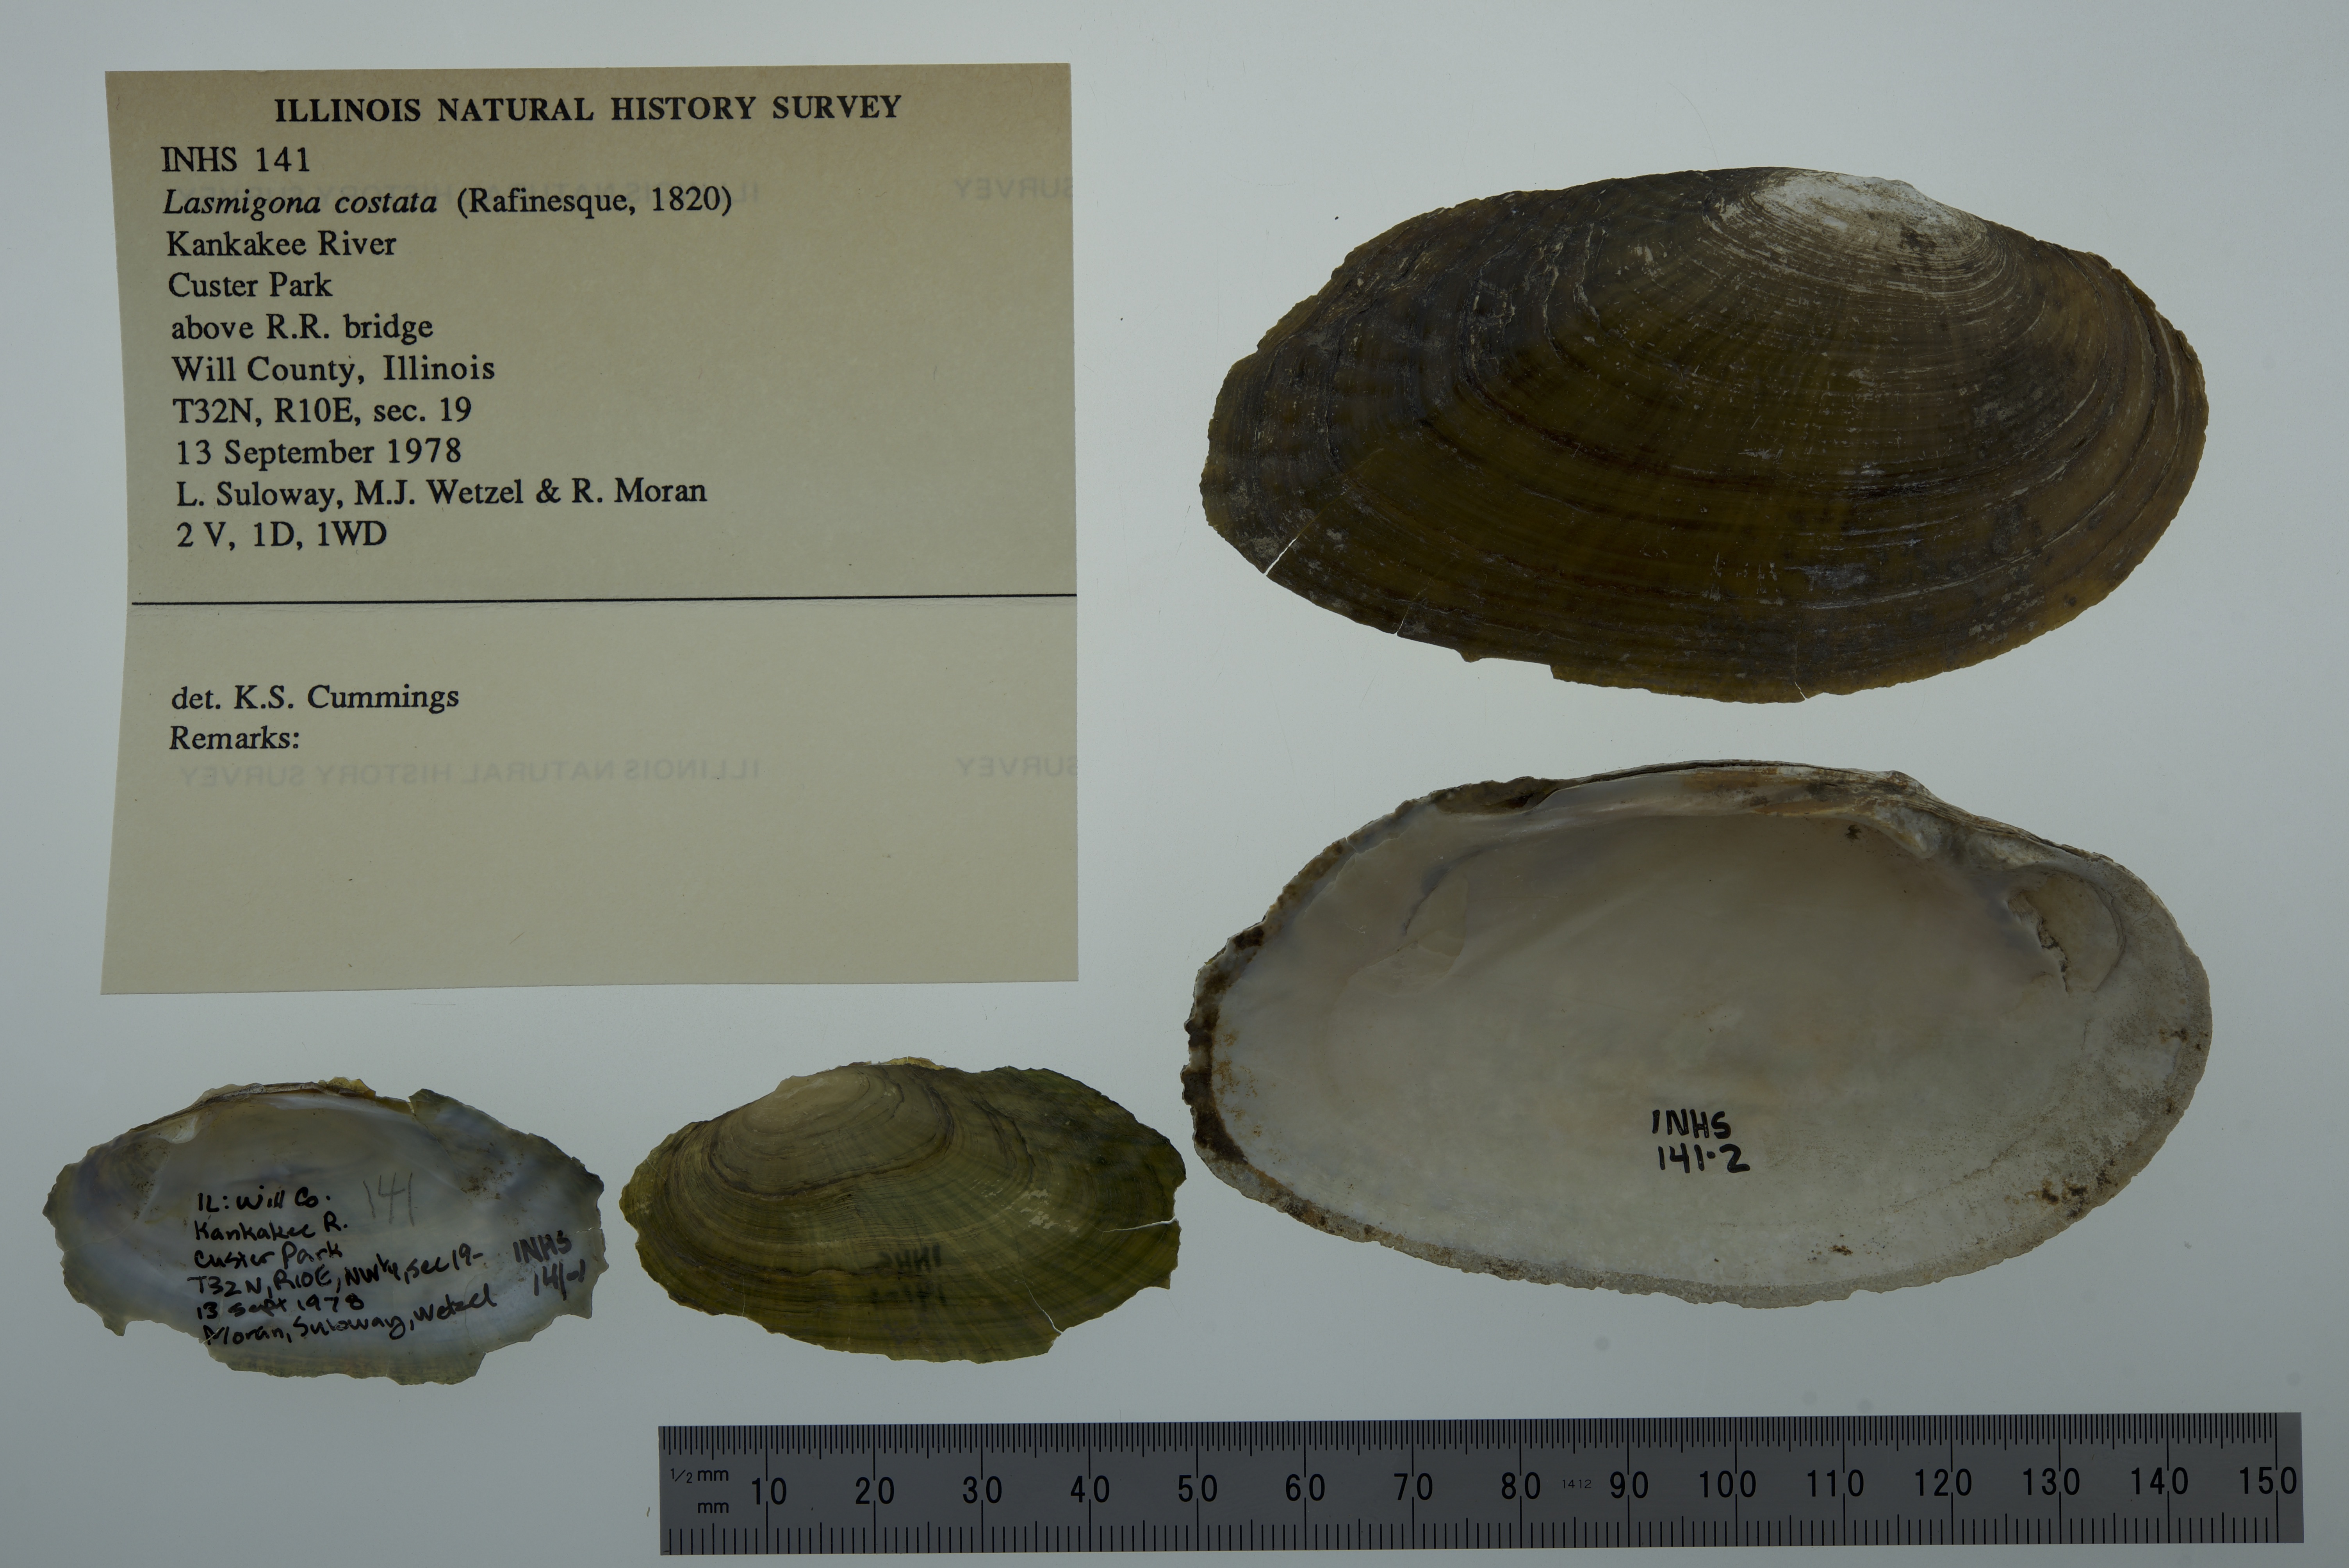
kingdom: Animalia
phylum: Mollusca
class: Bivalvia
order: Unionida
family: Unionidae
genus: Lasmigona
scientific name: Lasmigona costata
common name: Flutedshell
